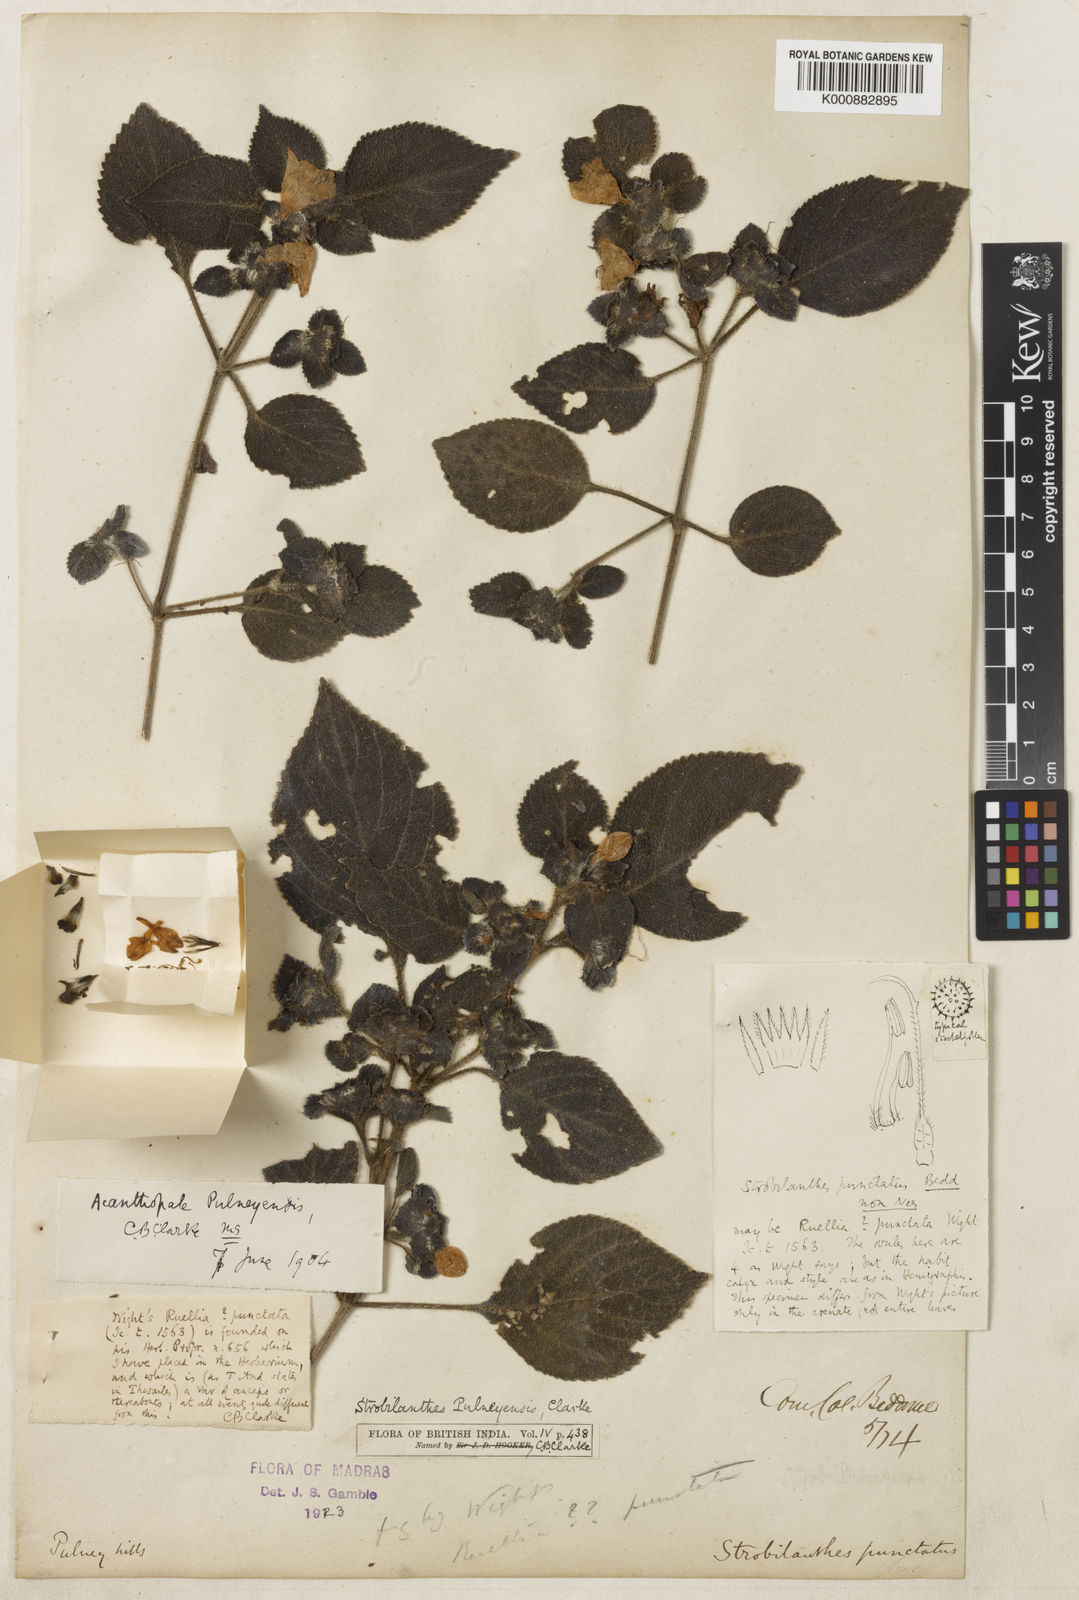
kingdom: Plantae
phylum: Tracheophyta
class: Magnoliopsida
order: Lamiales
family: Acanthaceae
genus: Strobilanthes
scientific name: Strobilanthes pulneyensis
